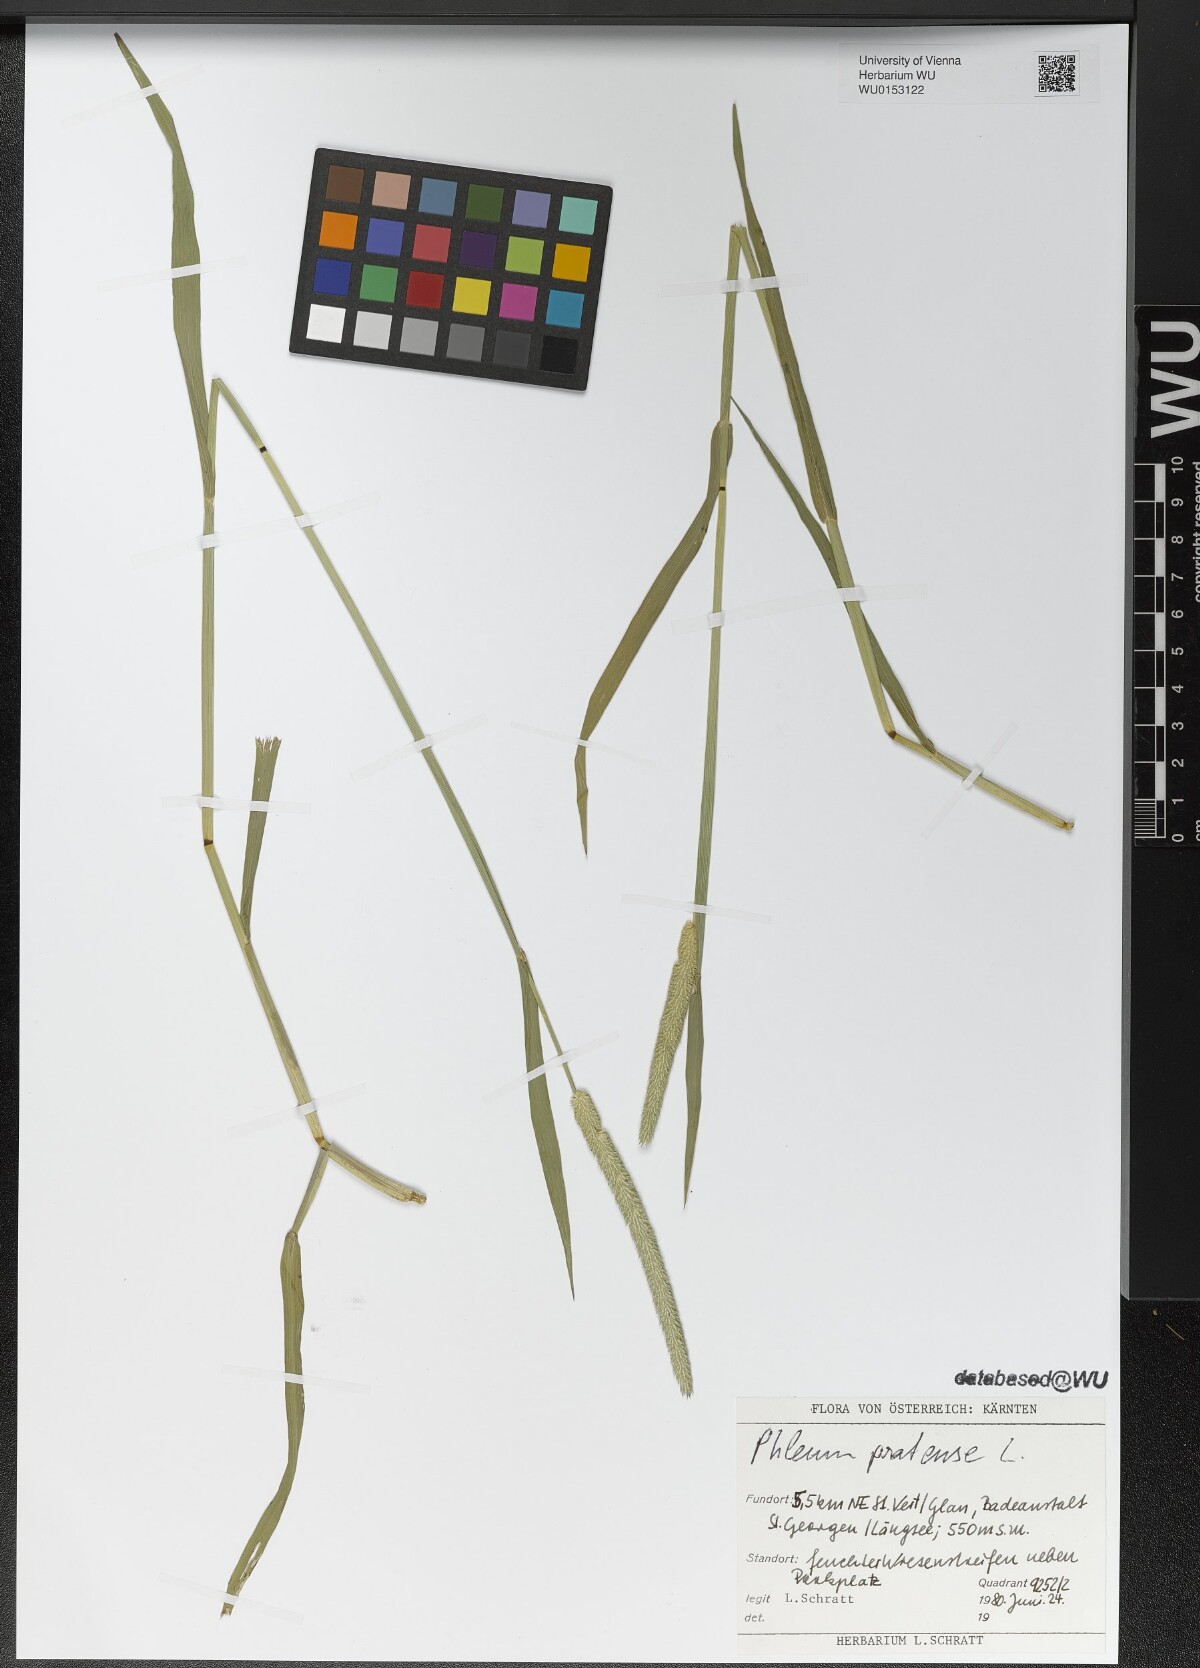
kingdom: Plantae
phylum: Tracheophyta
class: Liliopsida
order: Poales
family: Poaceae
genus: Phleum
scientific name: Phleum pratense
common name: Timothy grass
